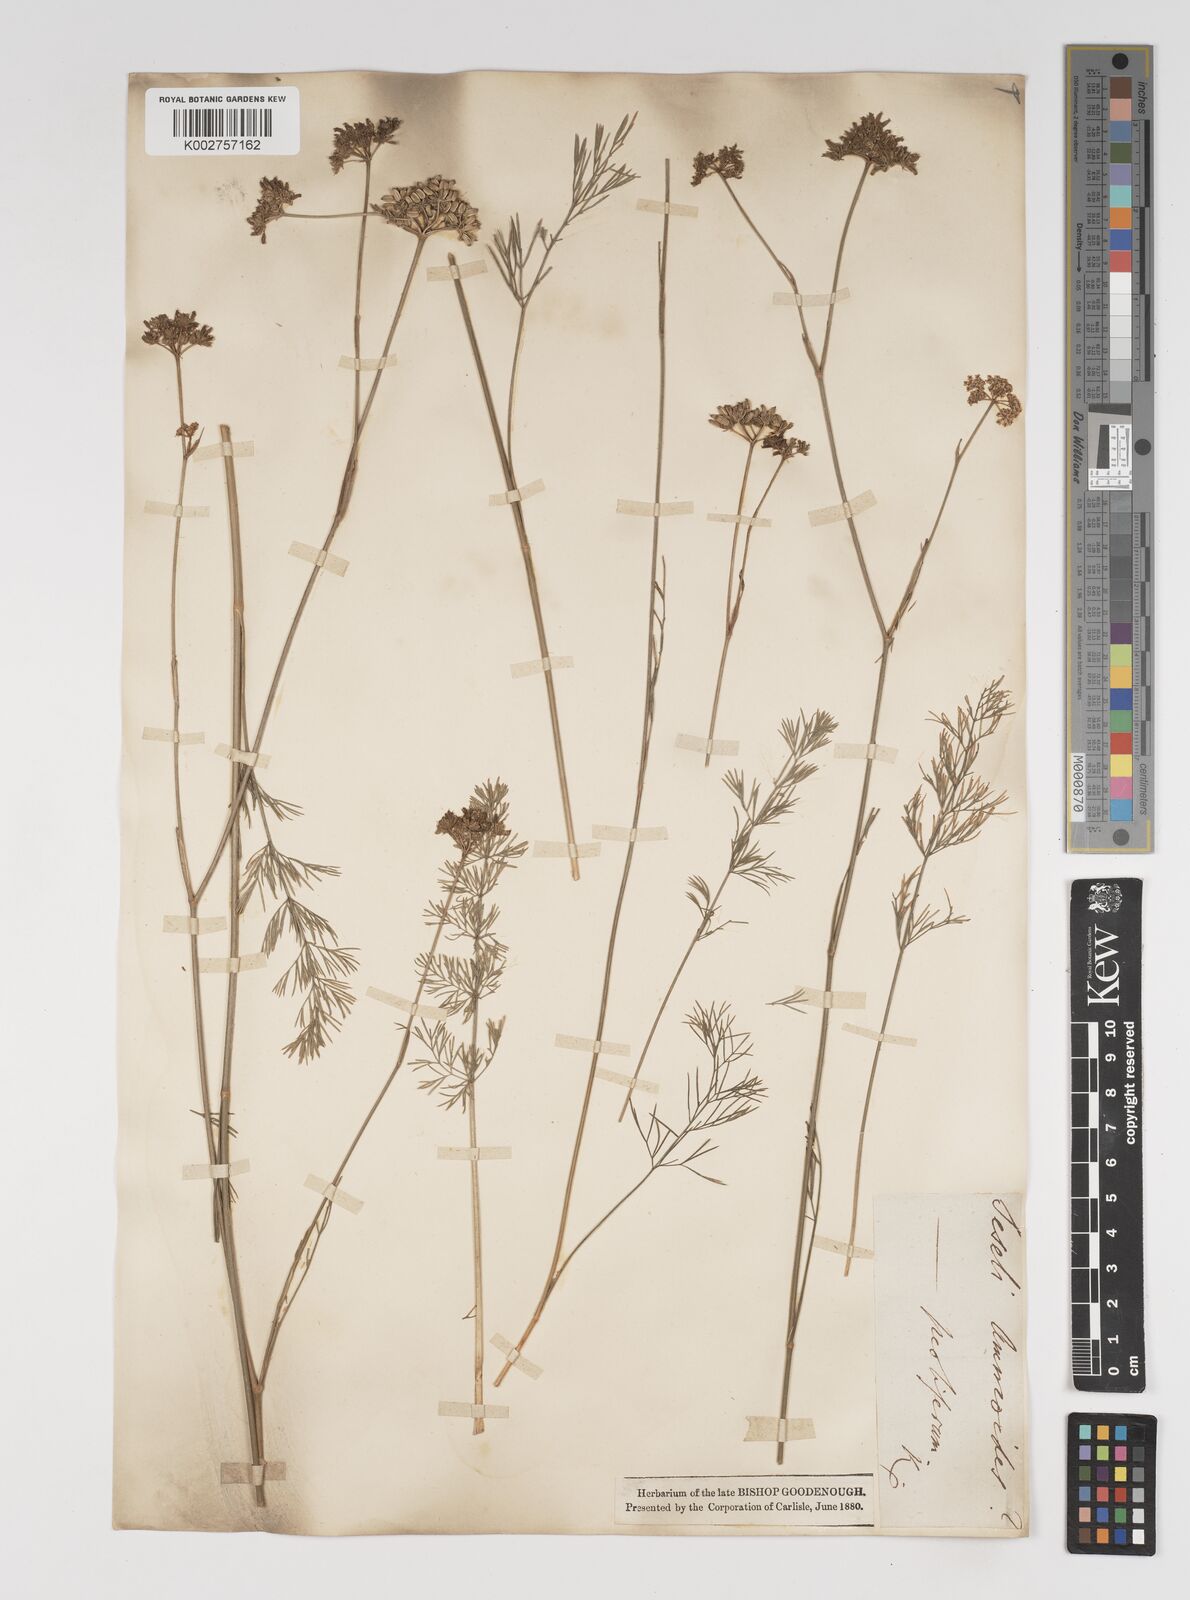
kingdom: Plantae
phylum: Tracheophyta
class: Magnoliopsida
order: Apiales
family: Apiaceae
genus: Seseli
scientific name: Seseli annuum
